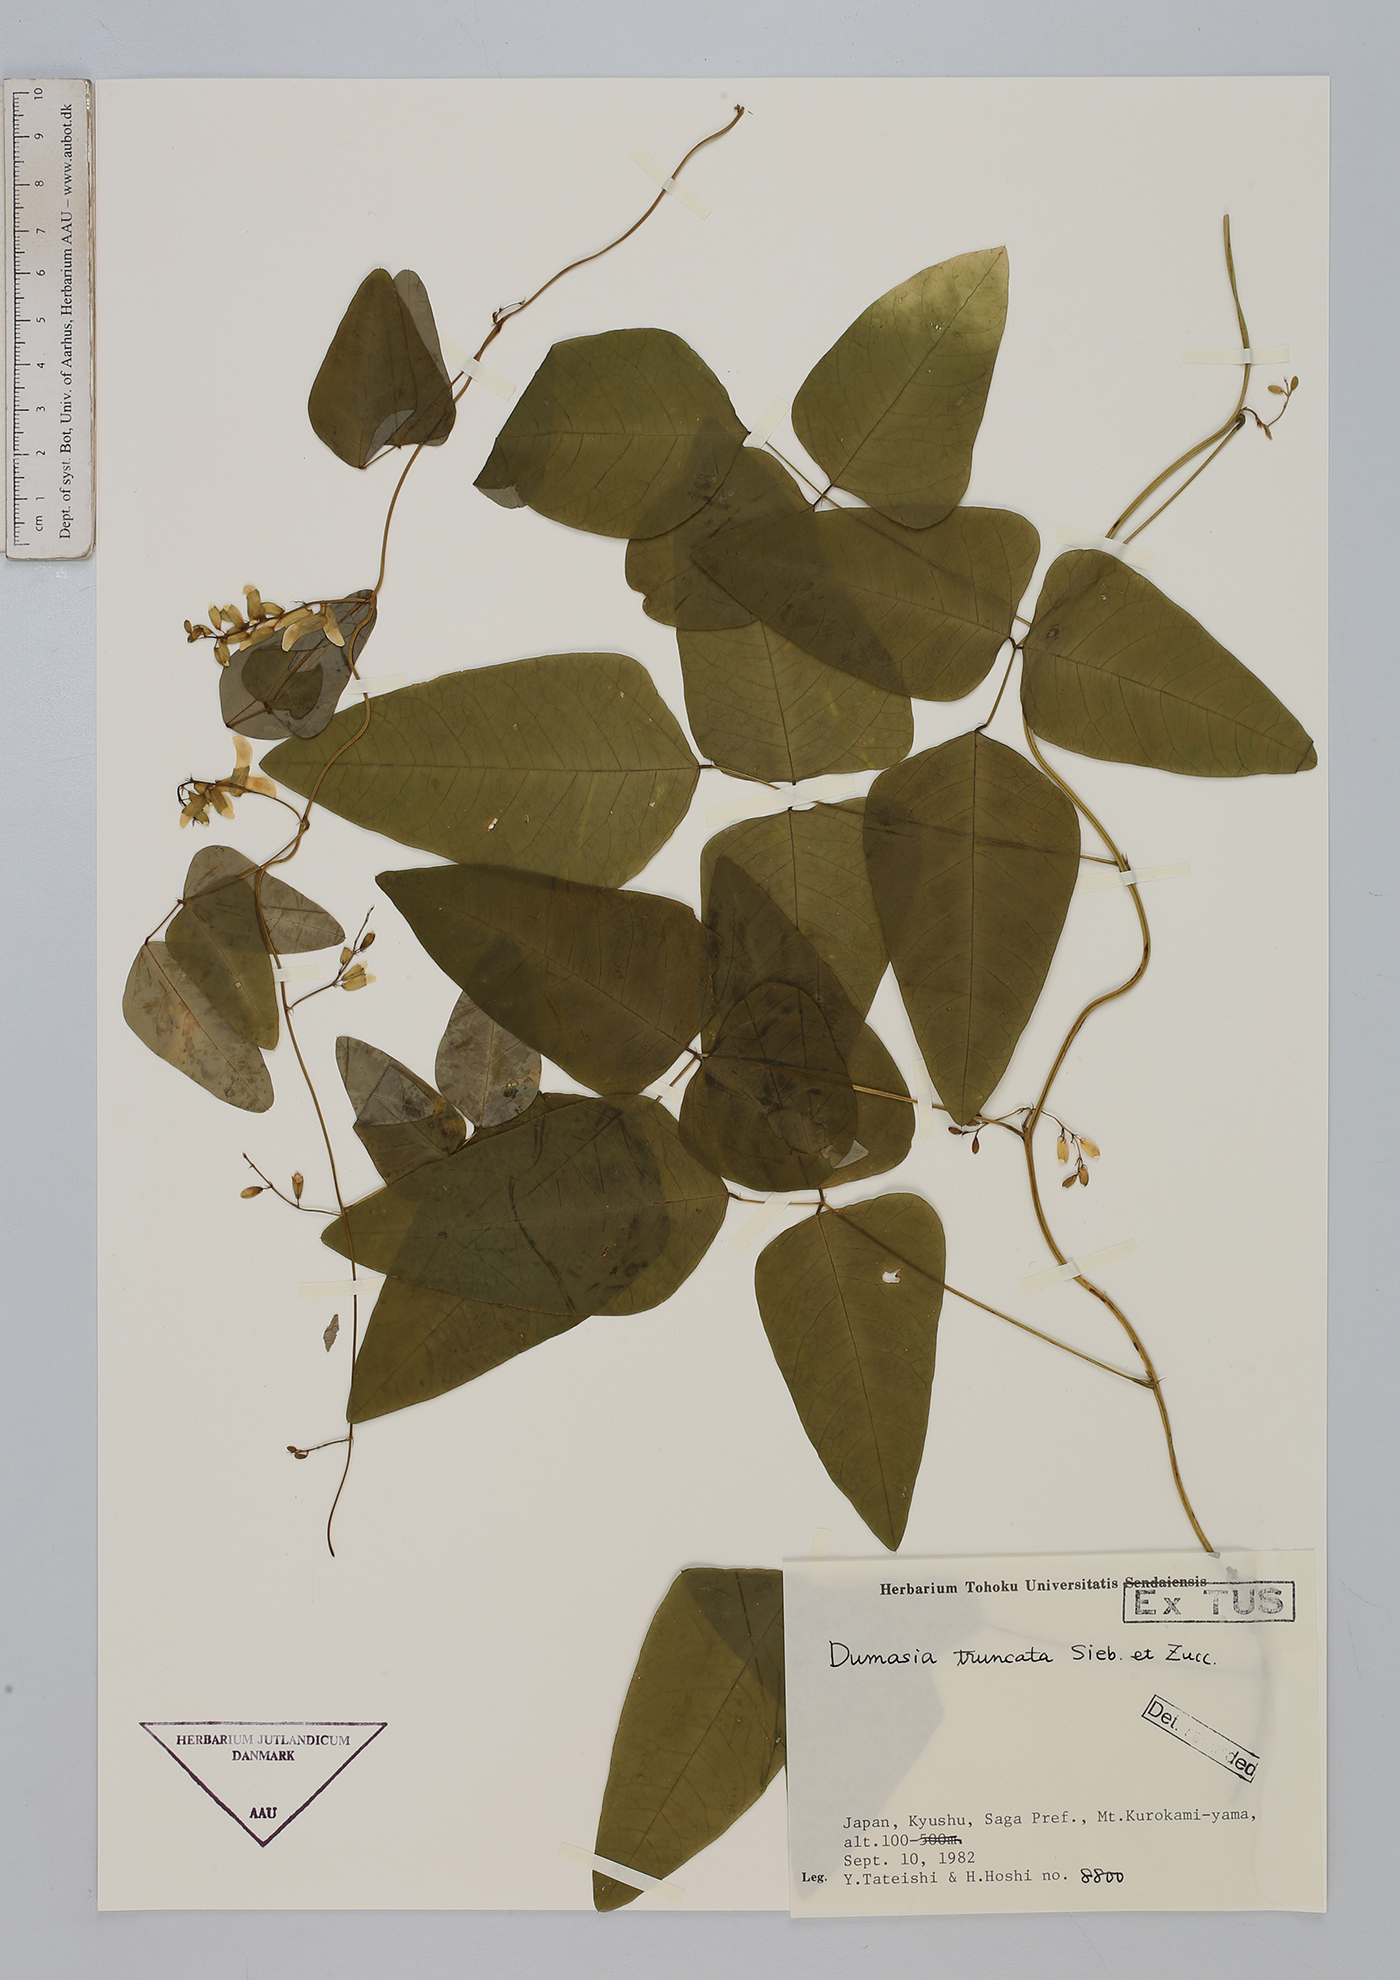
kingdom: Plantae
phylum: Tracheophyta
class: Magnoliopsida
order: Fabales
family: Fabaceae
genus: Dumasia
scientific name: Dumasia truncata
